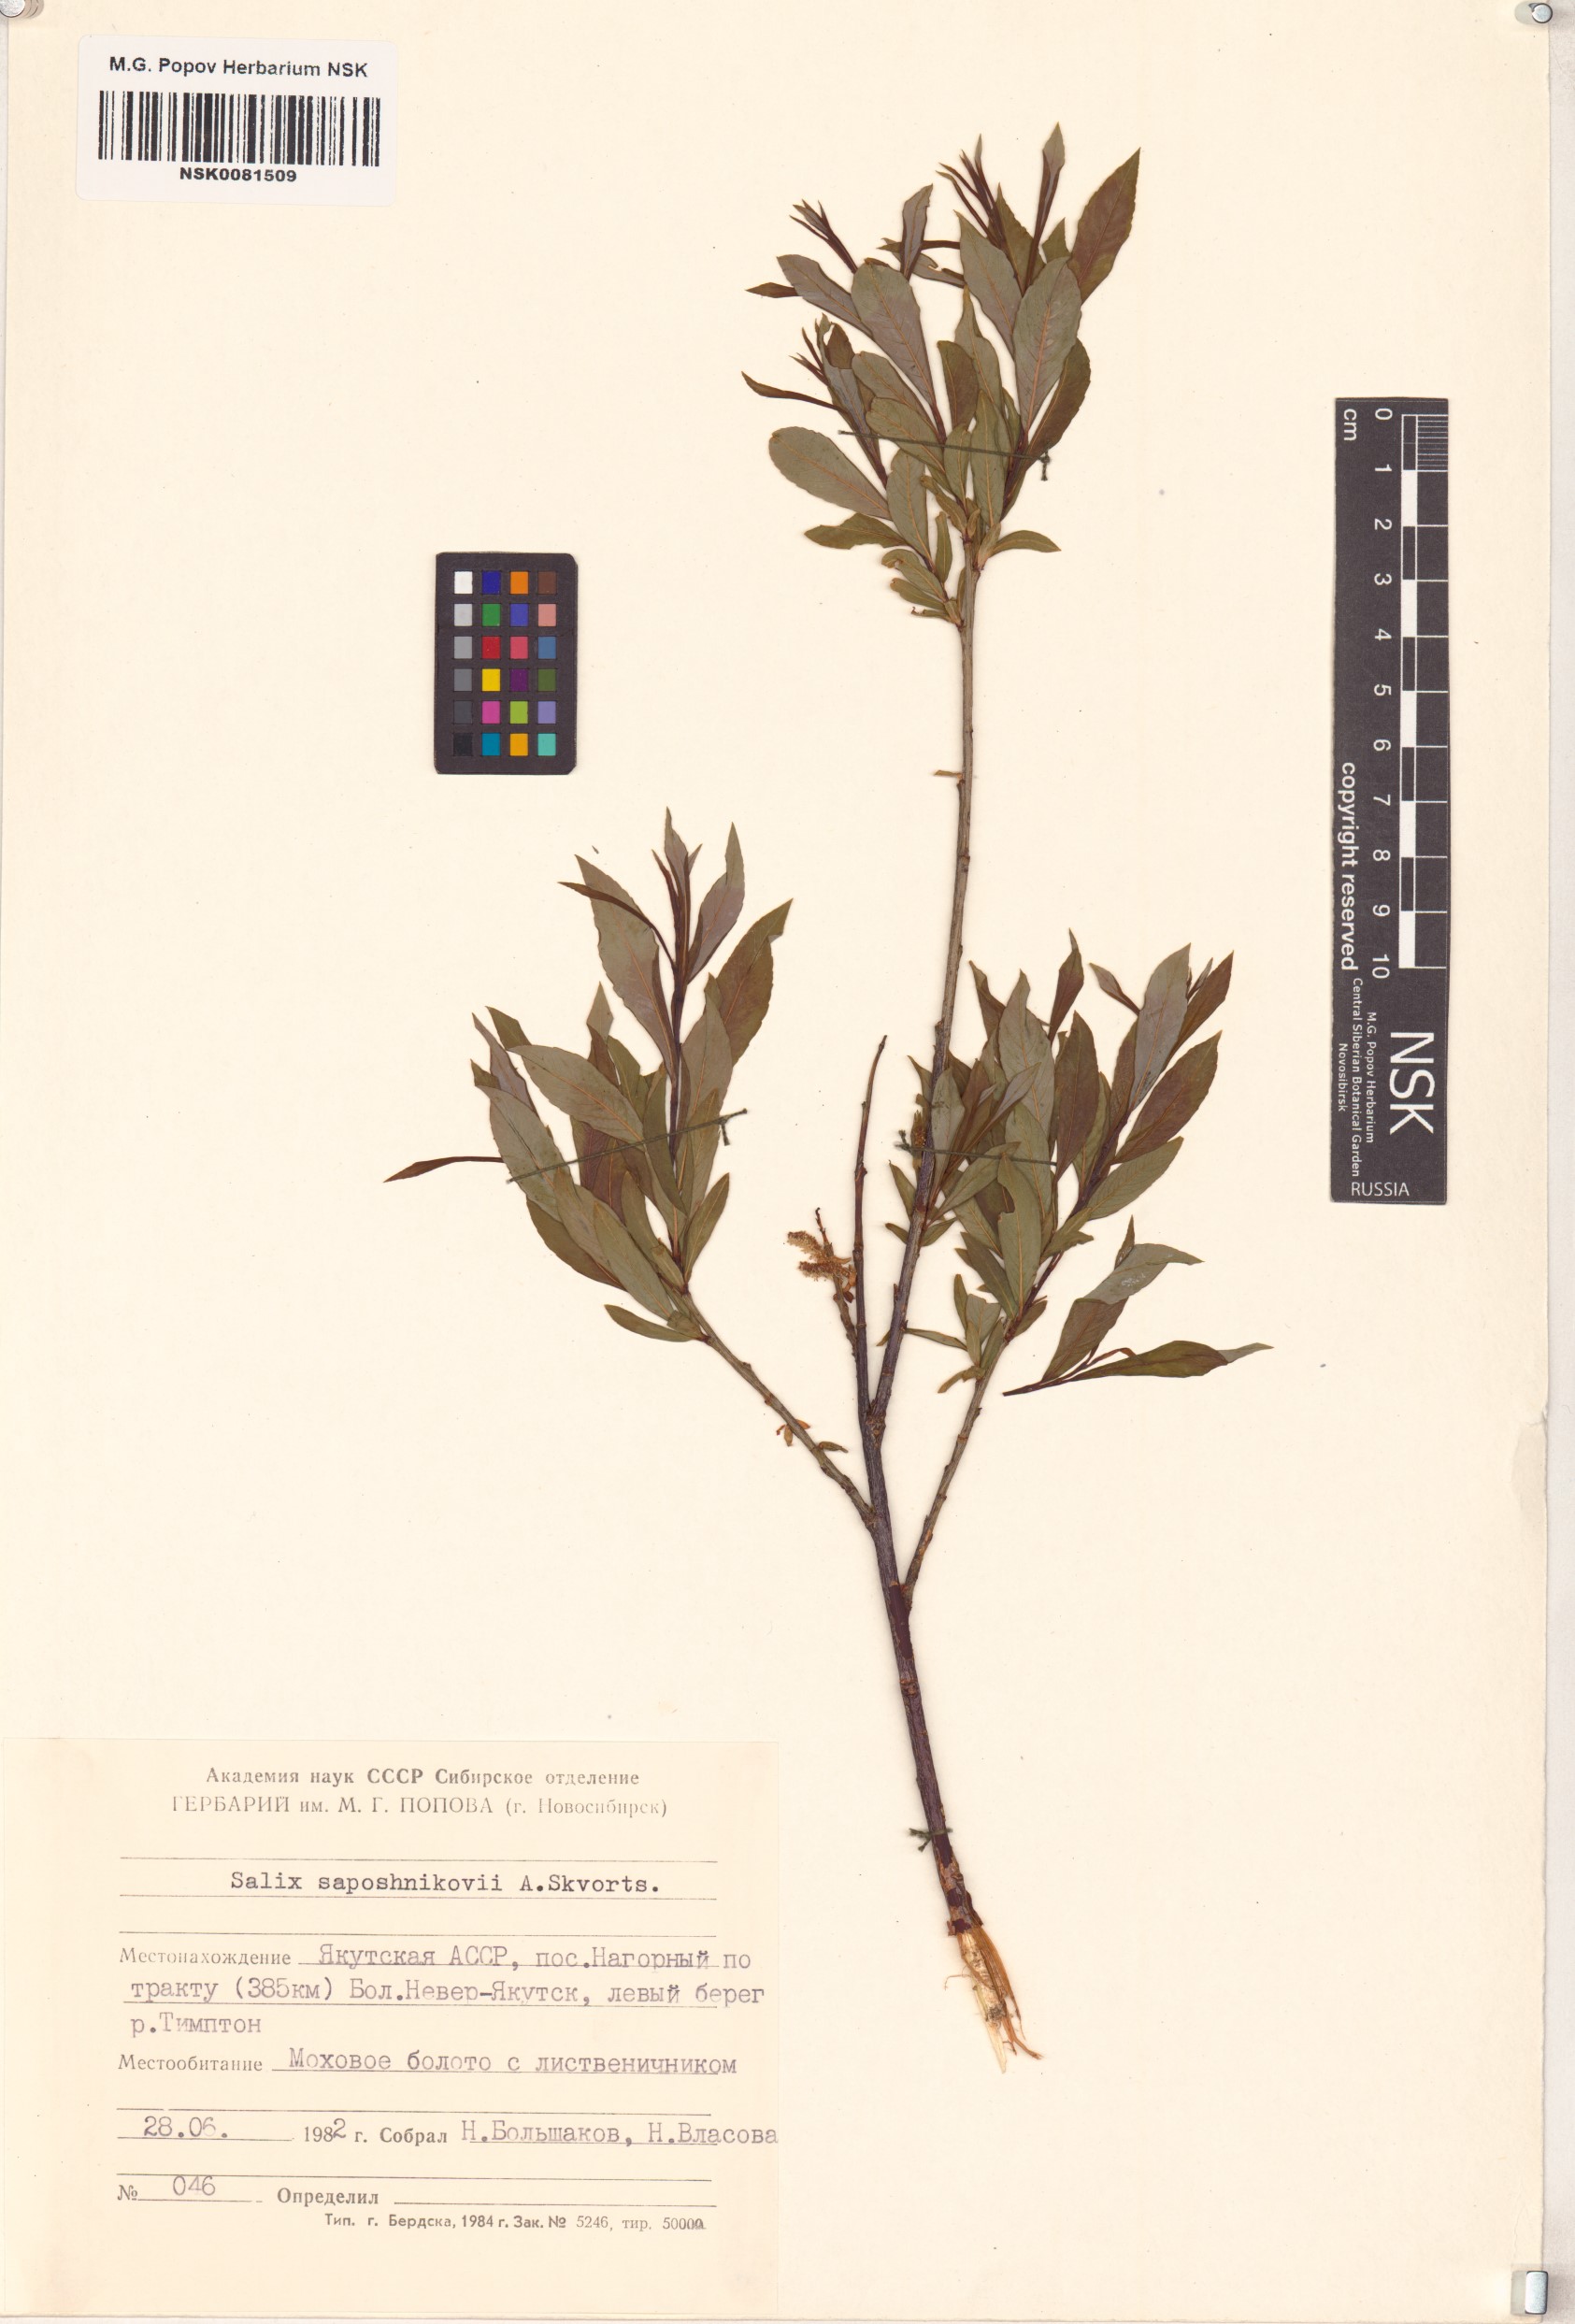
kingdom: Plantae
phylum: Tracheophyta
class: Magnoliopsida
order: Malpighiales
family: Salicaceae
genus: Salix
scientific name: Salix saposhnikovii
